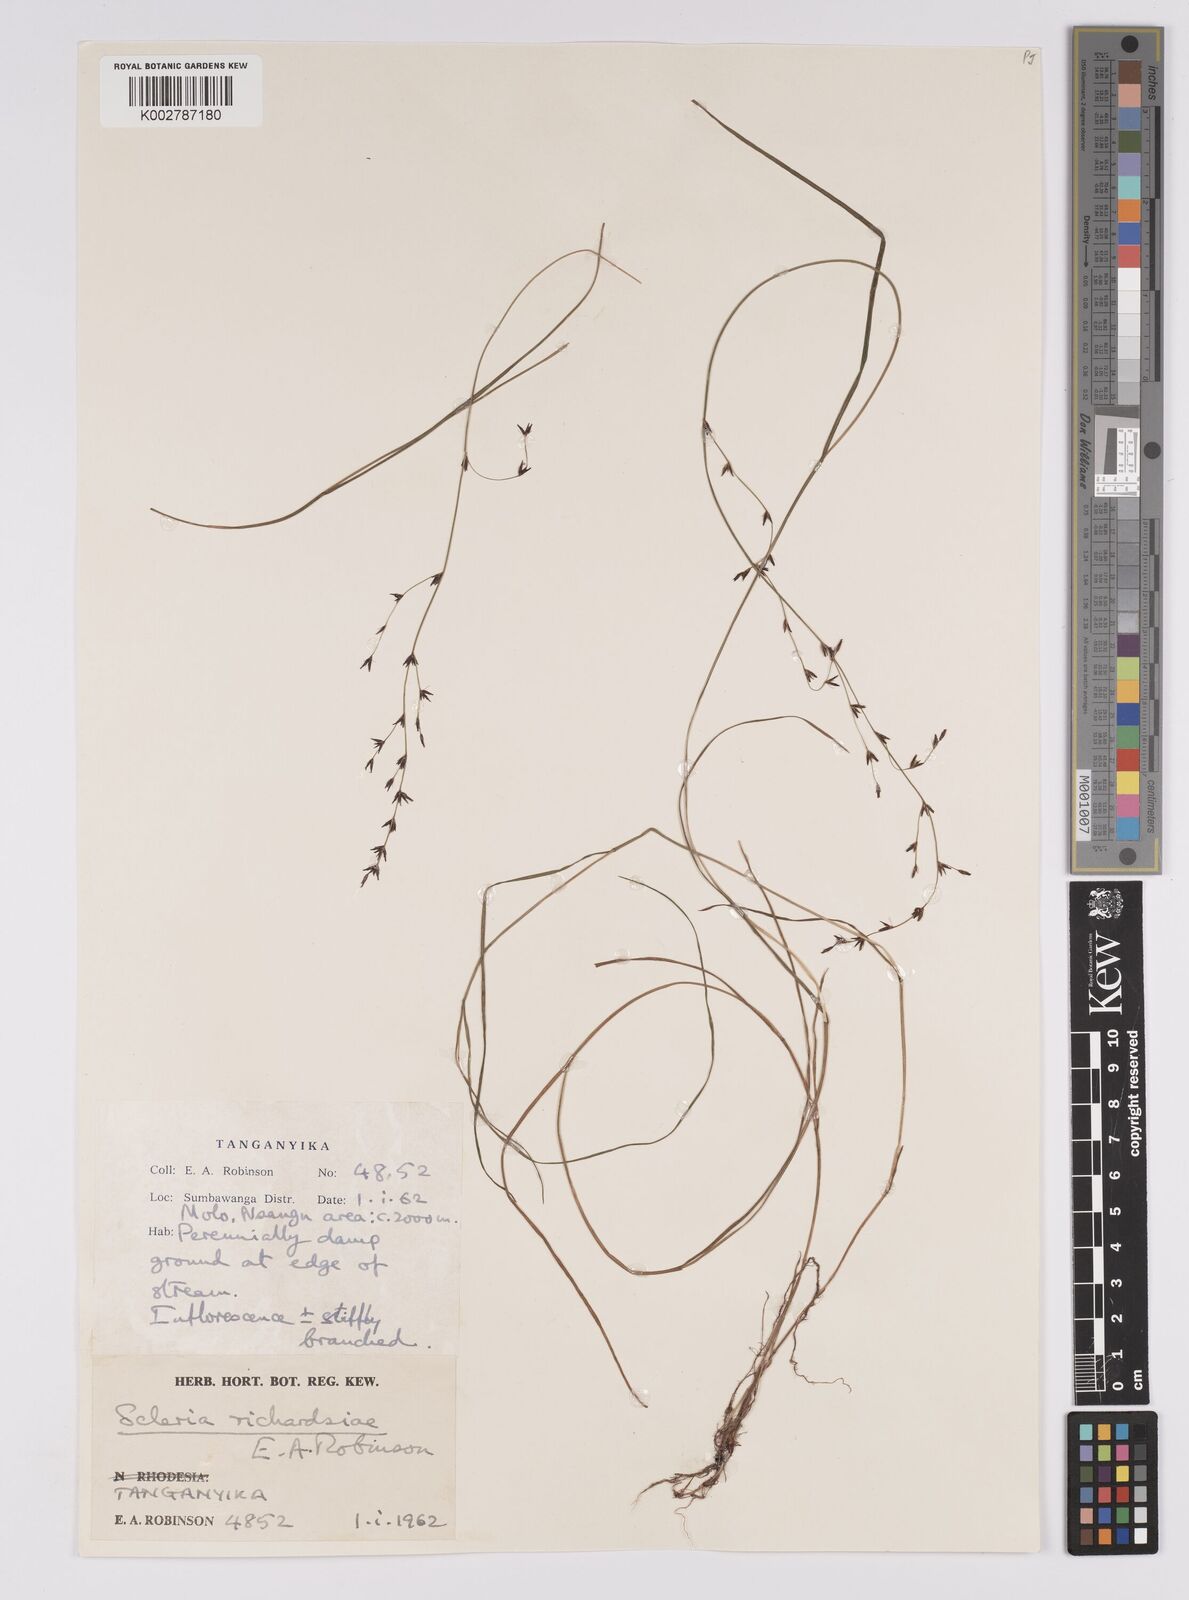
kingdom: Plantae
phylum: Tracheophyta
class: Liliopsida
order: Poales
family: Cyperaceae
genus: Scleria
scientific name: Scleria richardsiae
